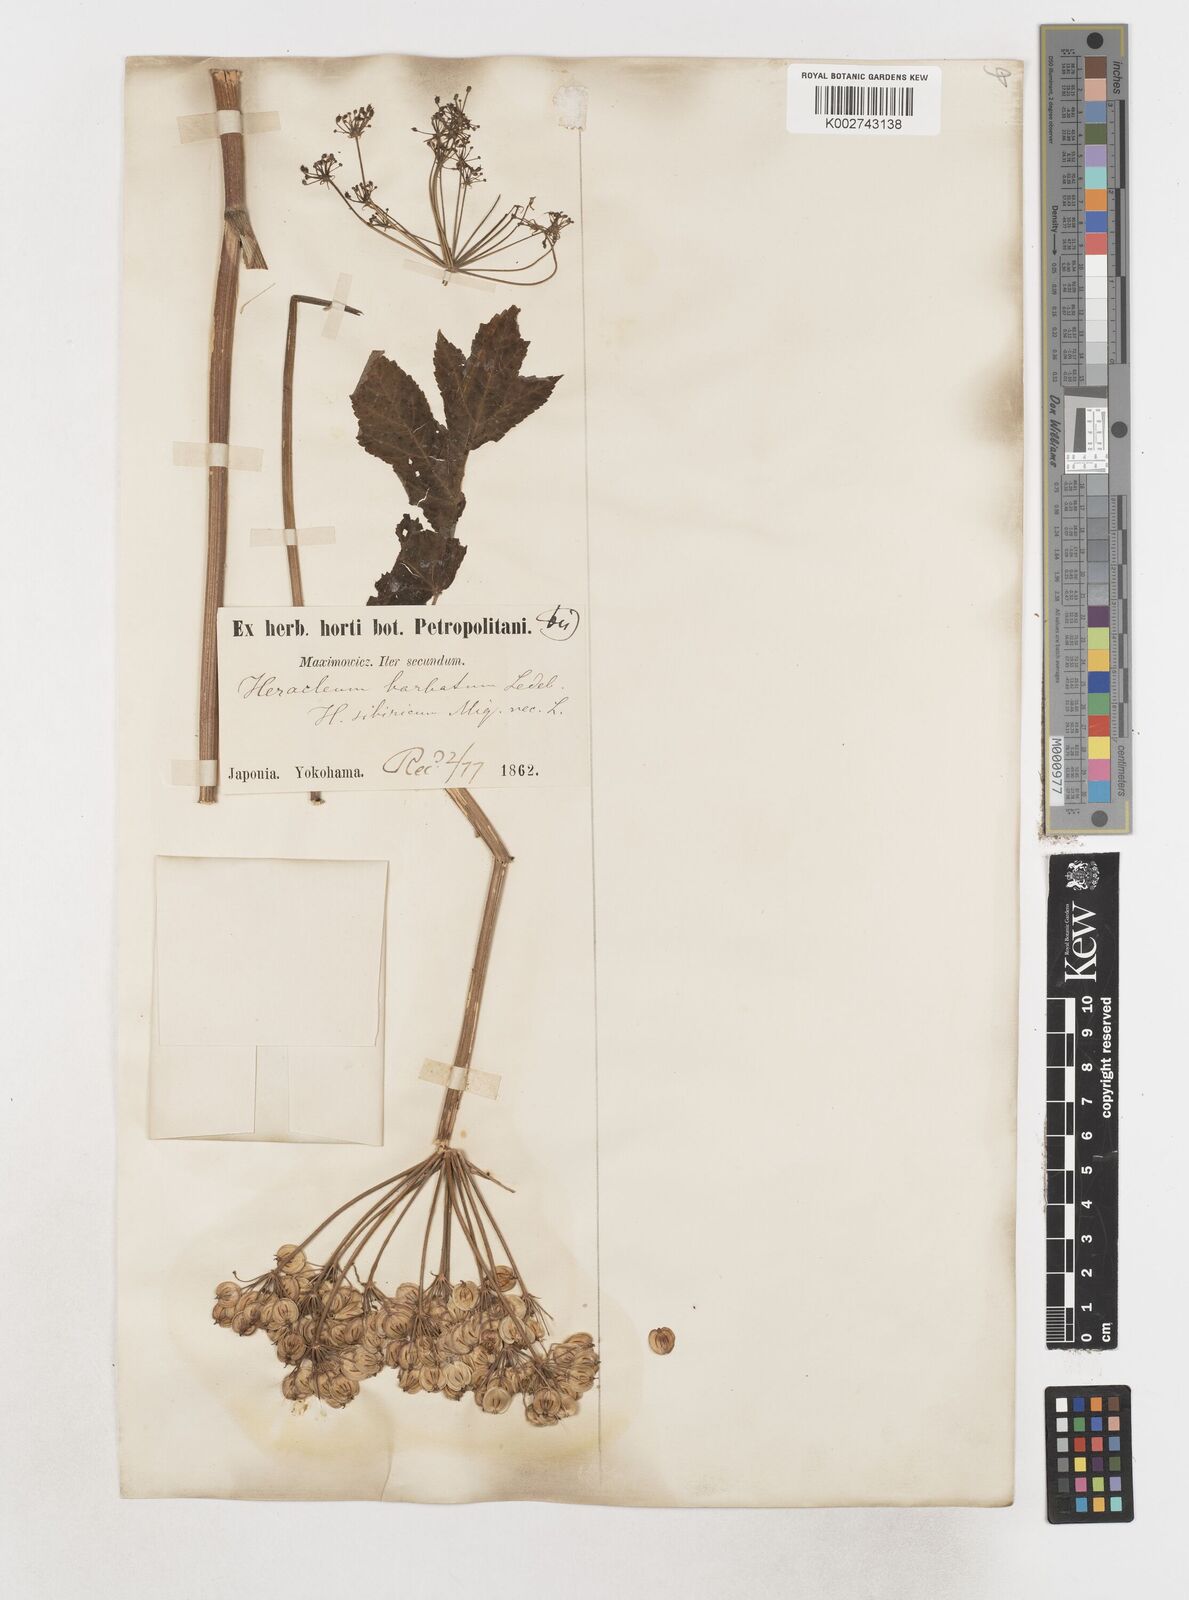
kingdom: Plantae
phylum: Tracheophyta
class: Magnoliopsida
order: Apiales
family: Apiaceae
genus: Heracleum
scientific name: Heracleum dissectum
